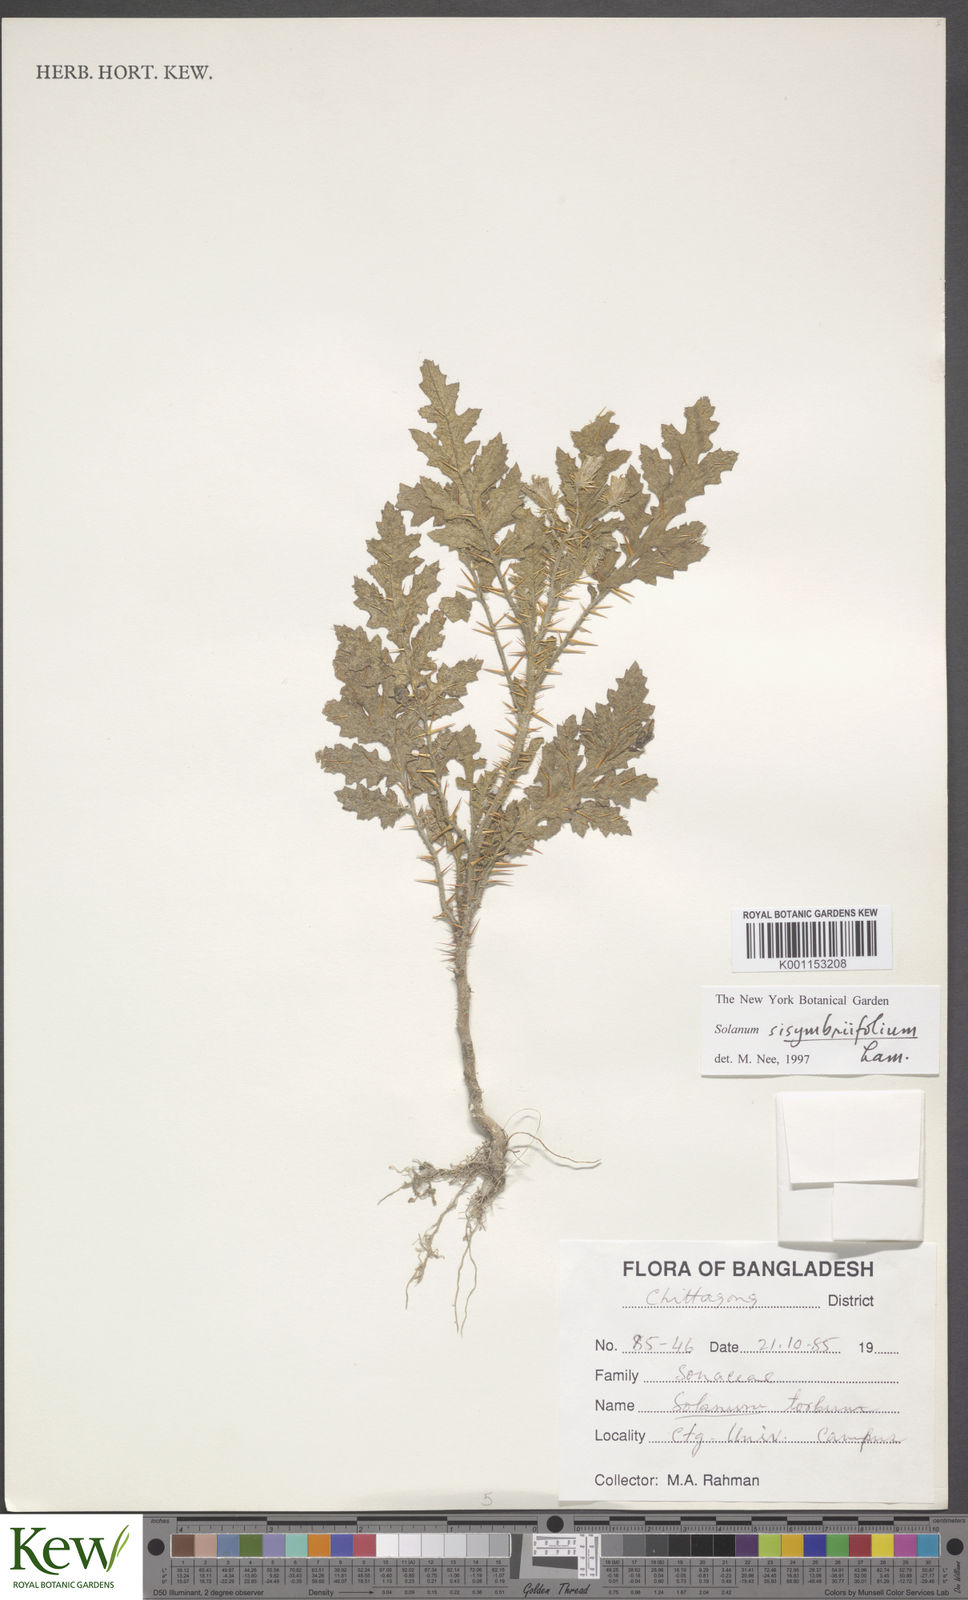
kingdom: Plantae
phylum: Tracheophyta
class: Magnoliopsida
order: Solanales
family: Solanaceae
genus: Solanum
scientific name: Solanum sisymbriifolium
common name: Red buffalo-bur
